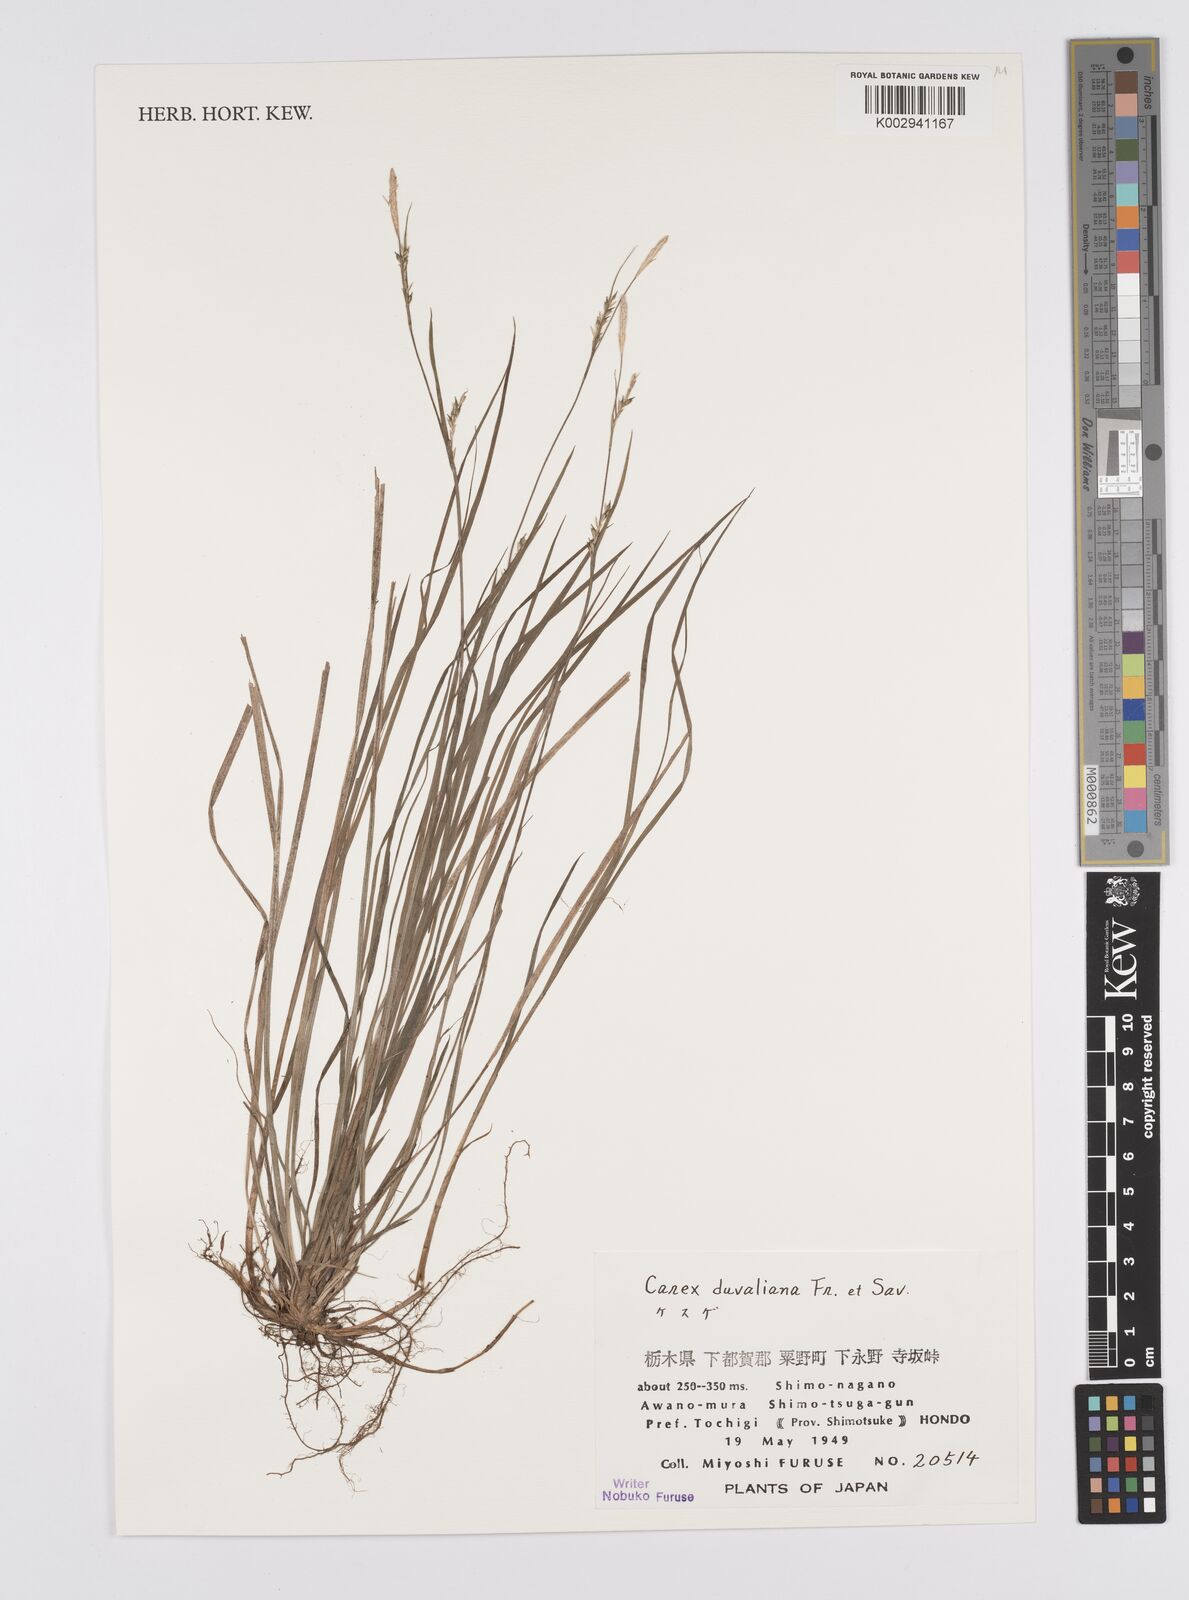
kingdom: Plantae
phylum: Tracheophyta
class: Liliopsida
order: Poales
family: Cyperaceae
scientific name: Cyperaceae
